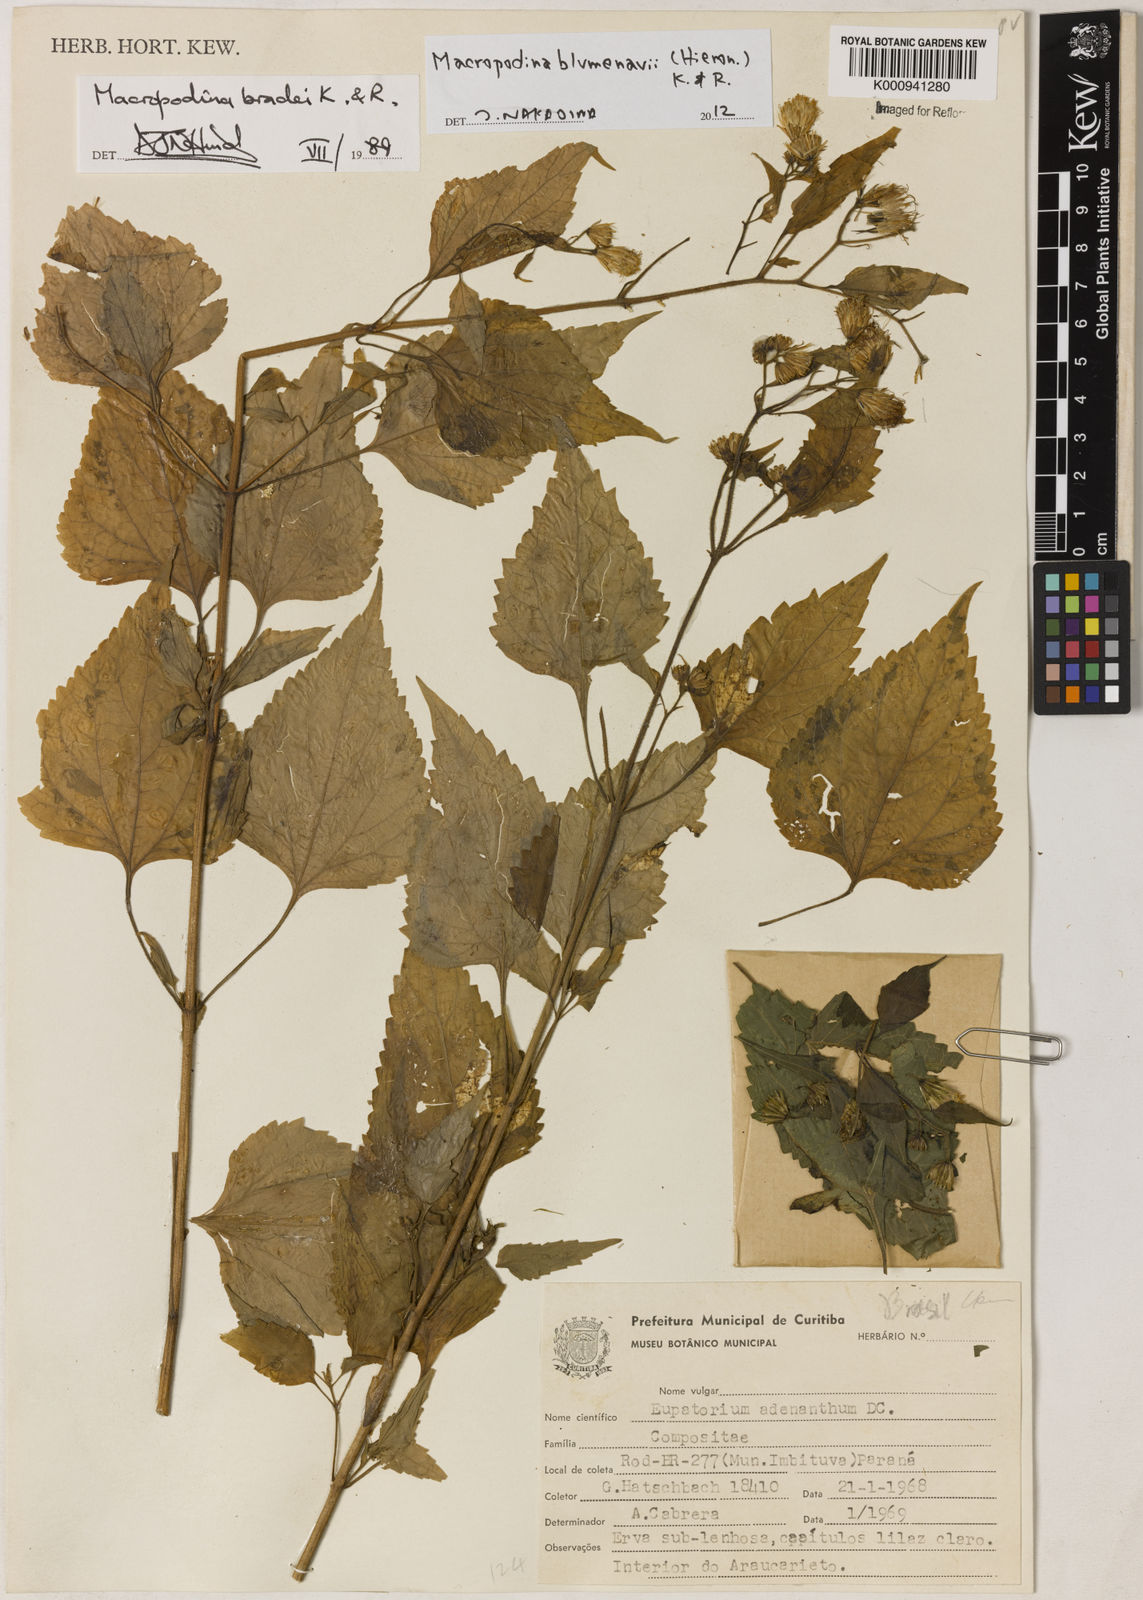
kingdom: Plantae
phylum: Tracheophyta
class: Magnoliopsida
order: Asterales
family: Asteraceae
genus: Macropodina
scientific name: Macropodina bradei
